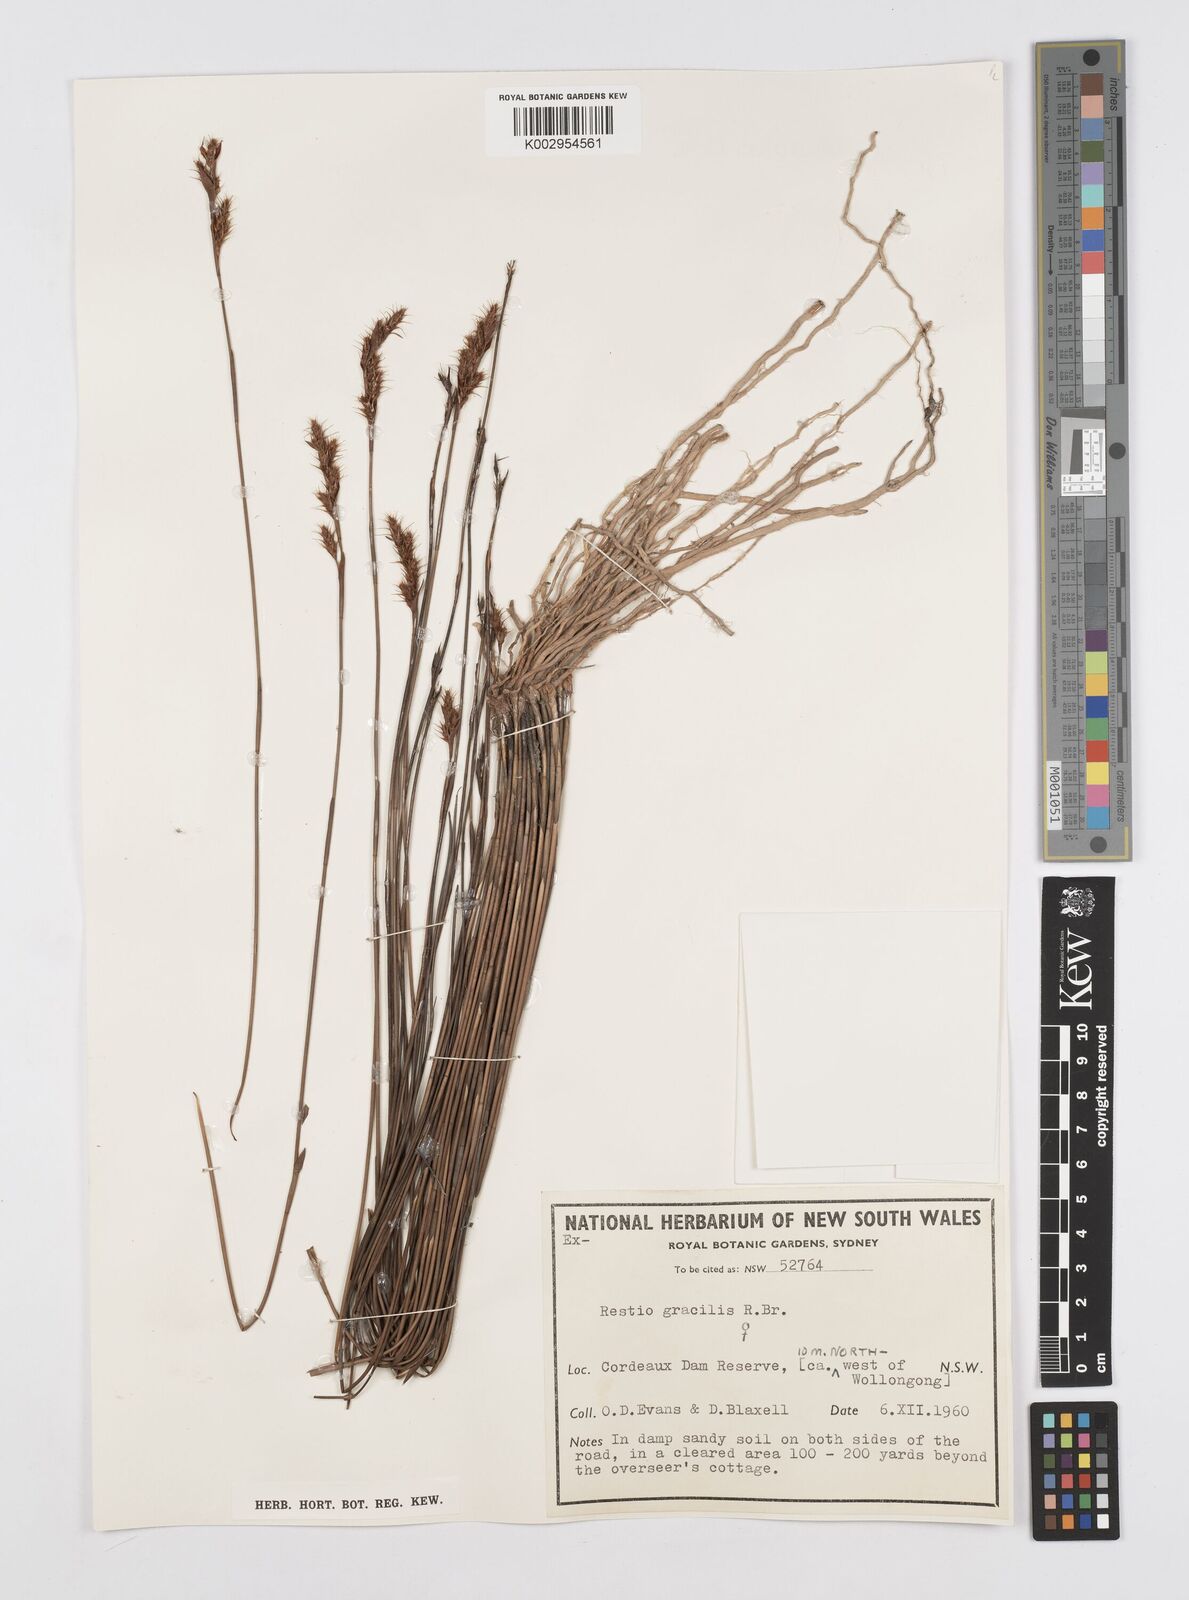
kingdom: Plantae
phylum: Tracheophyta
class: Liliopsida
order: Poales
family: Restionaceae
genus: Baloskion
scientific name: Baloskion gracile
